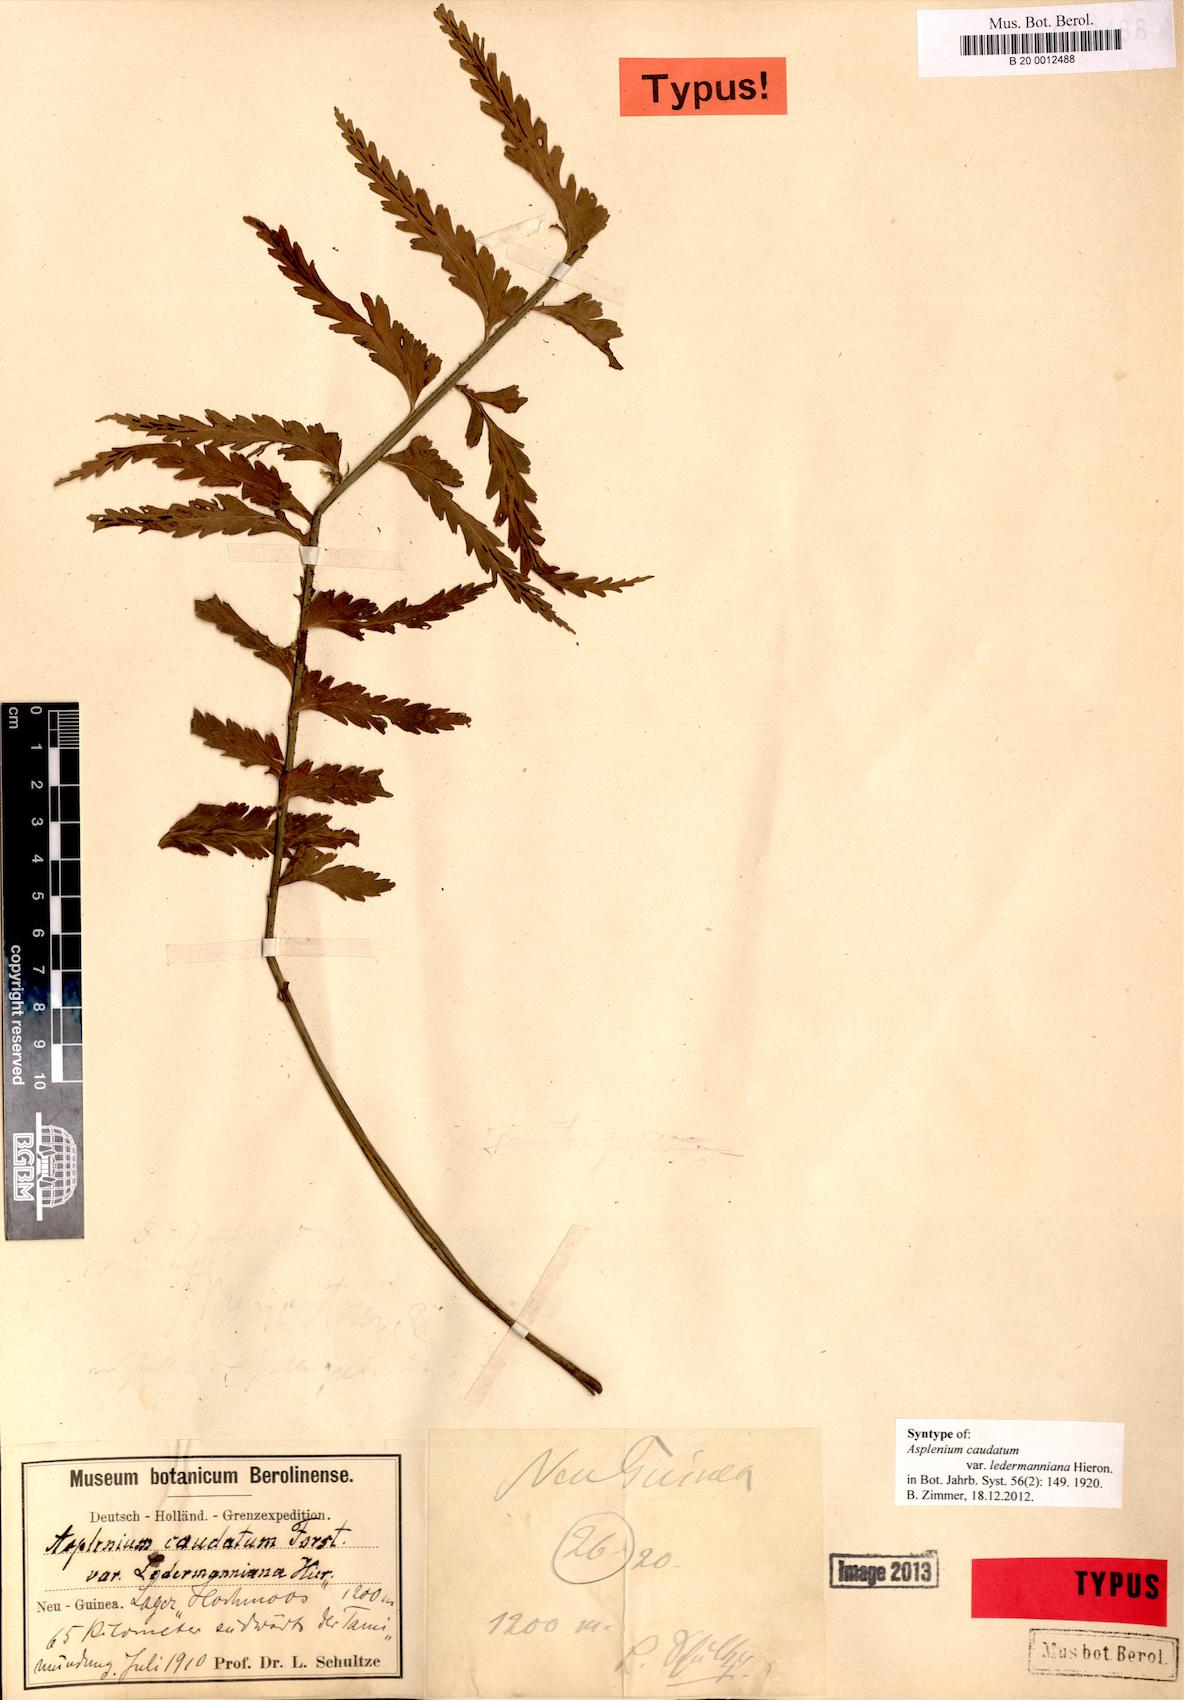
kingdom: Plantae
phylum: Tracheophyta
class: Polypodiopsida
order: Polypodiales
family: Aspleniaceae
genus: Asplenium
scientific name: Asplenium caudatum
